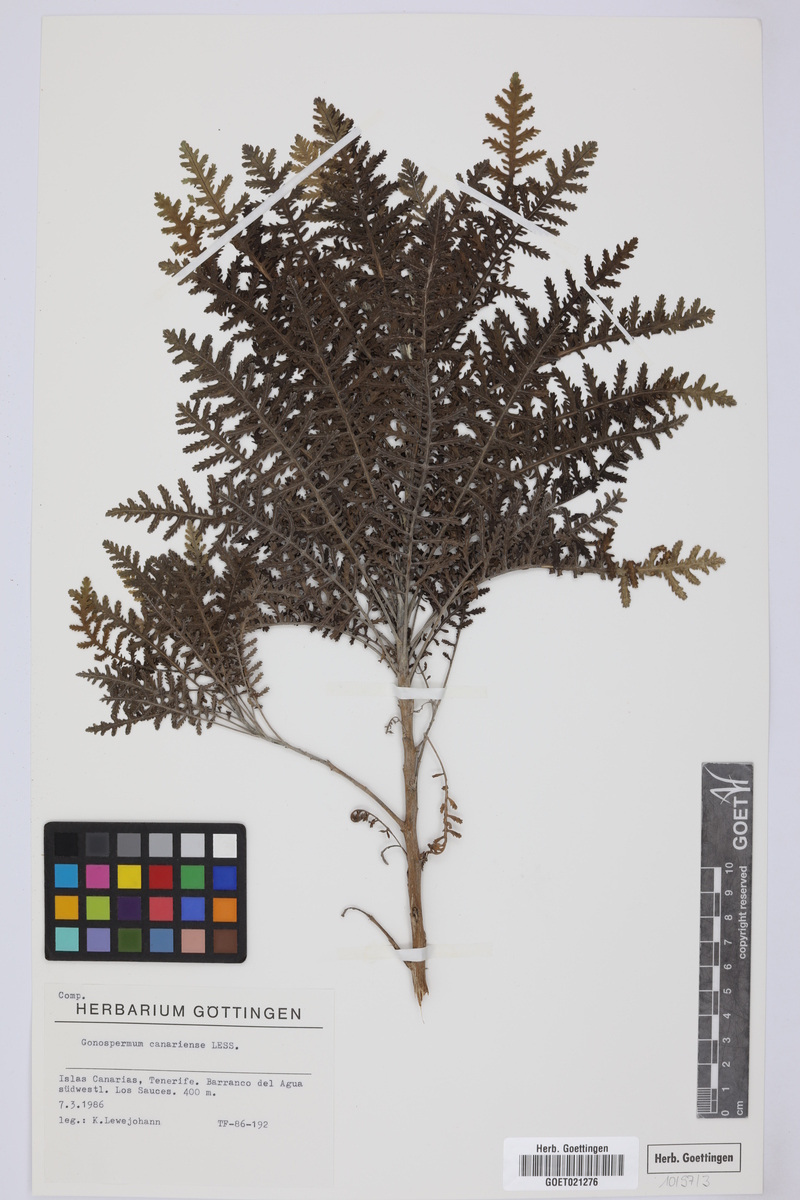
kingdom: Plantae
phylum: Tracheophyta
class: Magnoliopsida
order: Asterales
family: Asteraceae
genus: Gonospermum
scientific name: Gonospermum canariense
